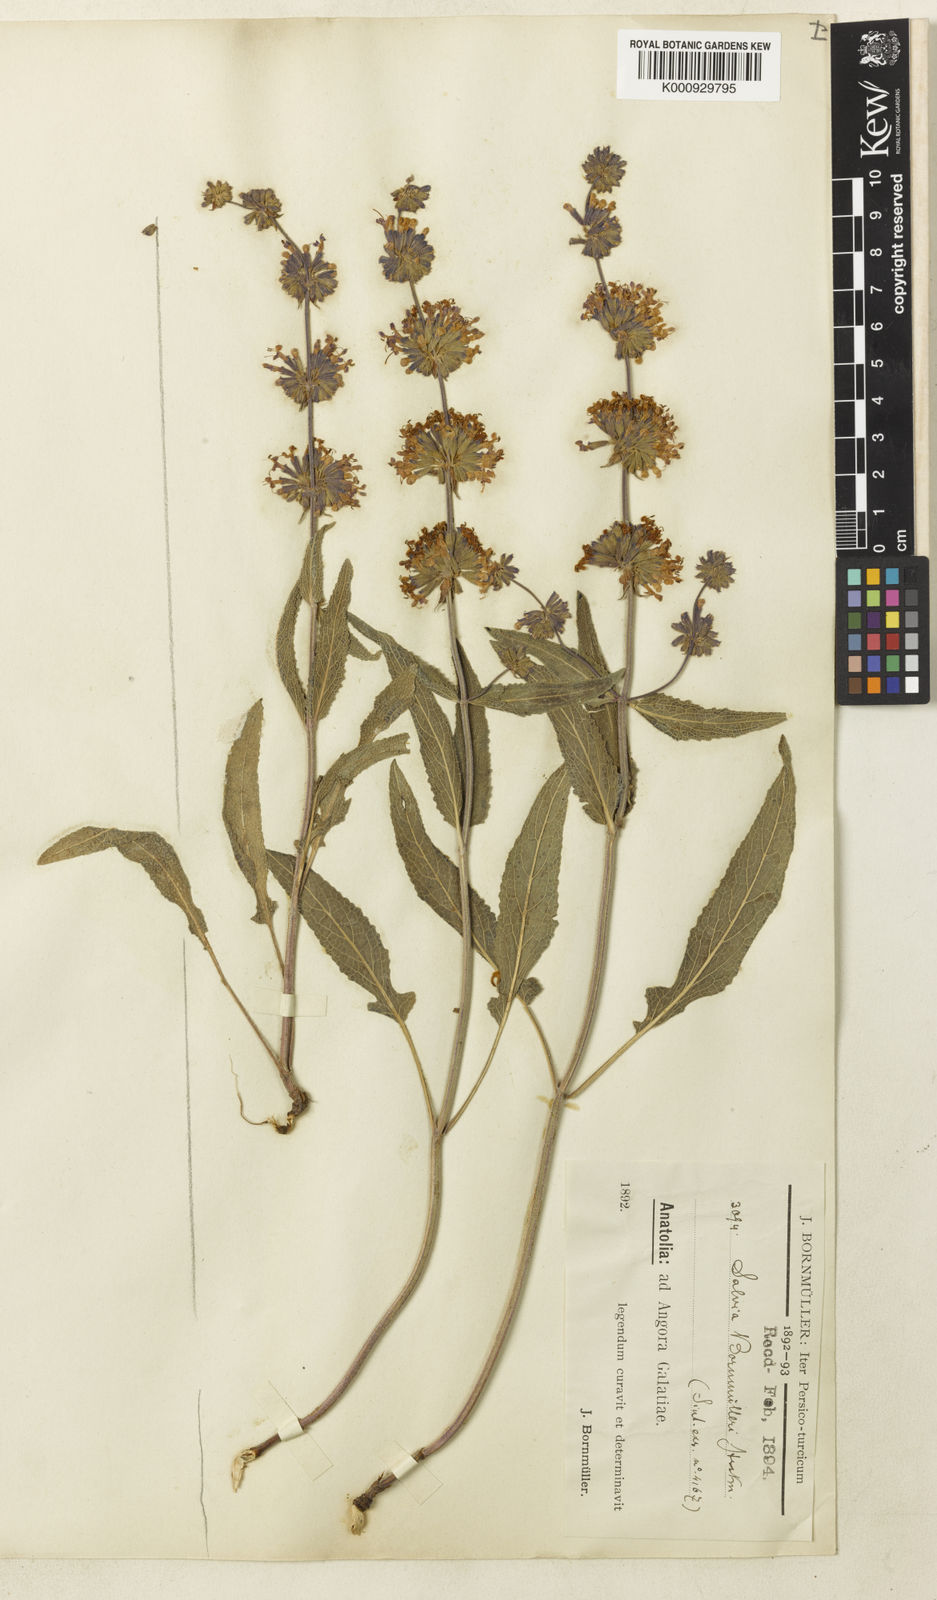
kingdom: Plantae
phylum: Tracheophyta
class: Magnoliopsida
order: Lamiales
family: Lamiaceae
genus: Salvia
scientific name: Salvia russellii
